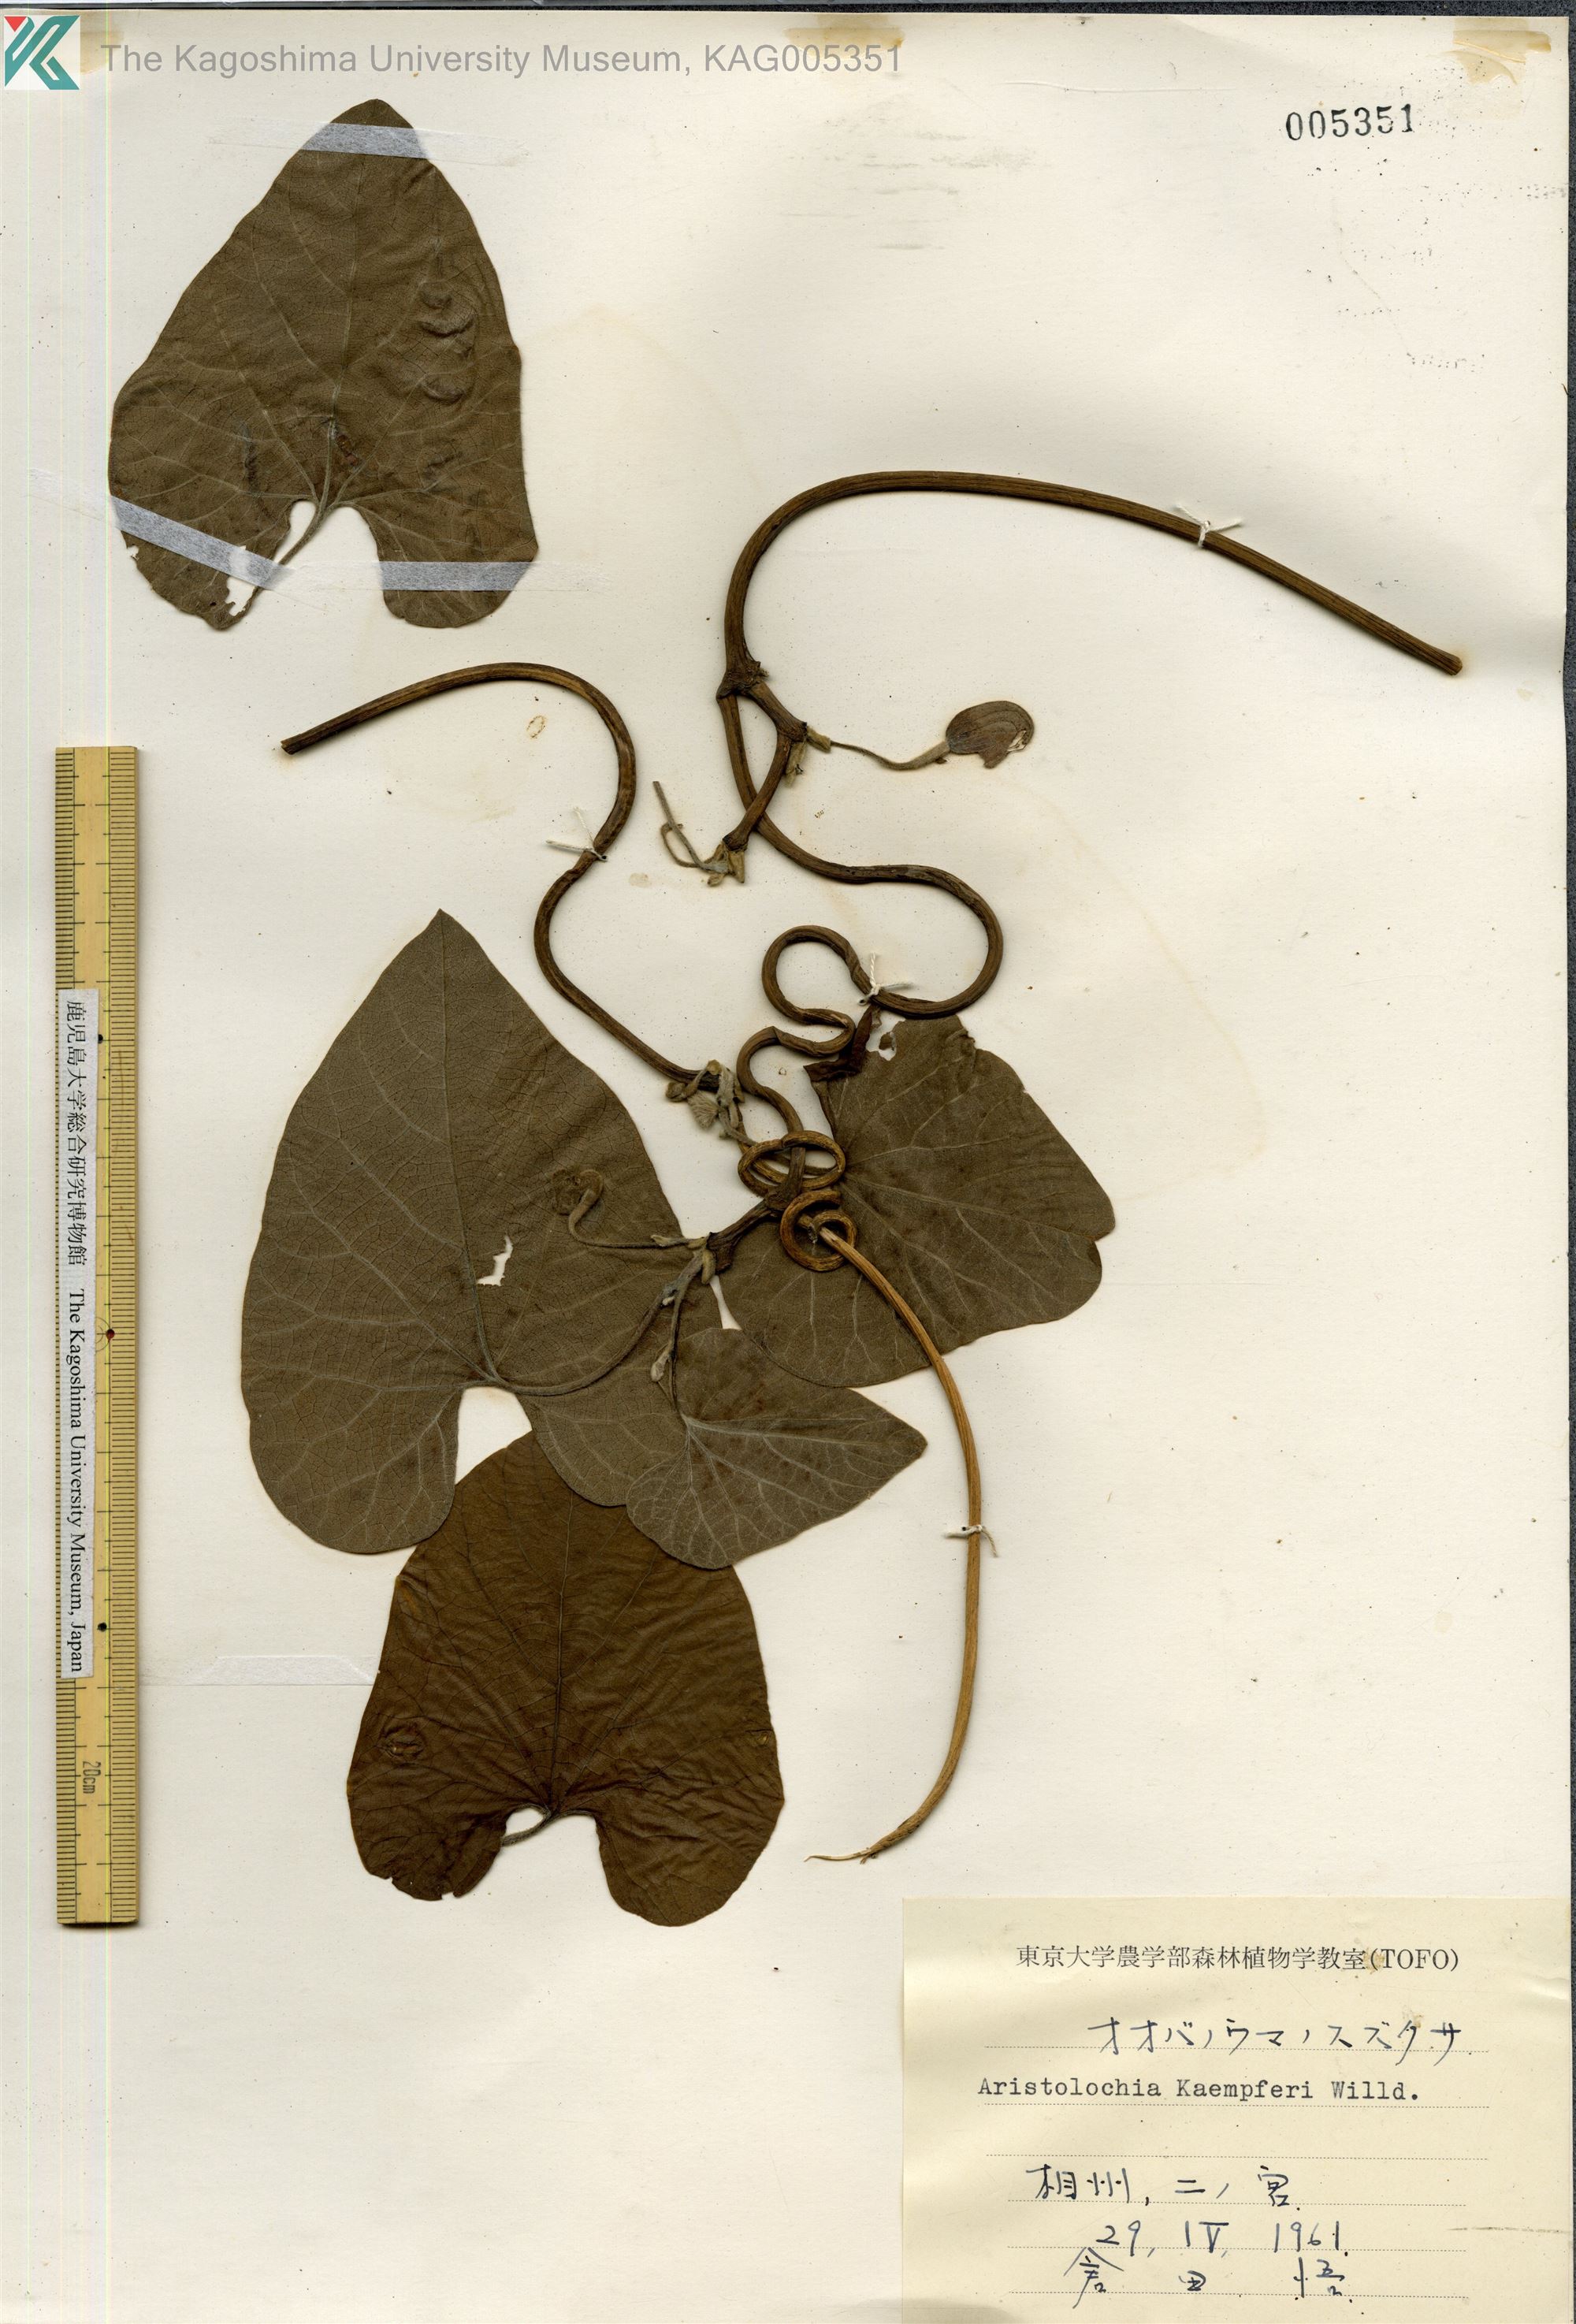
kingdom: Plantae
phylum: Tracheophyta
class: Magnoliopsida
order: Piperales
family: Aristolochiaceae
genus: Isotrema
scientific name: Isotrema kaempferi
